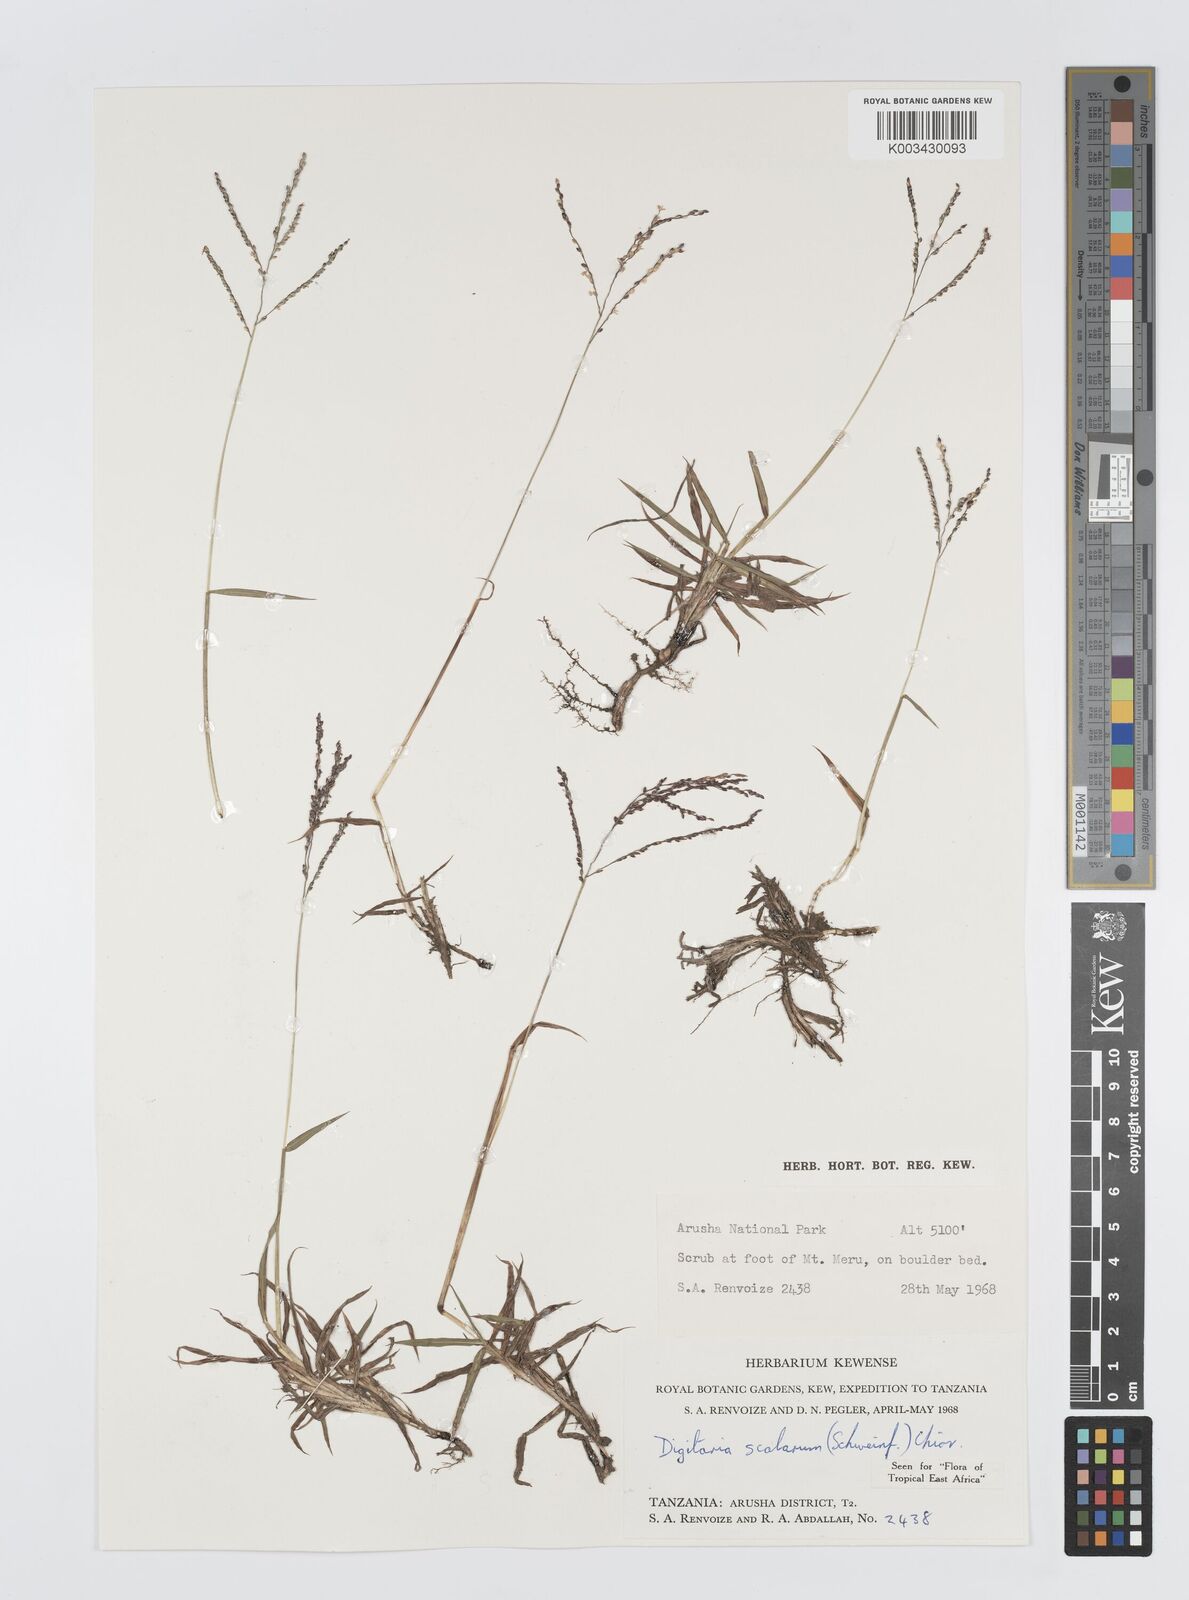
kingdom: Plantae
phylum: Tracheophyta
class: Liliopsida
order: Poales
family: Poaceae
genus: Digitaria
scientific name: Digitaria abyssinica
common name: African couchgrass
